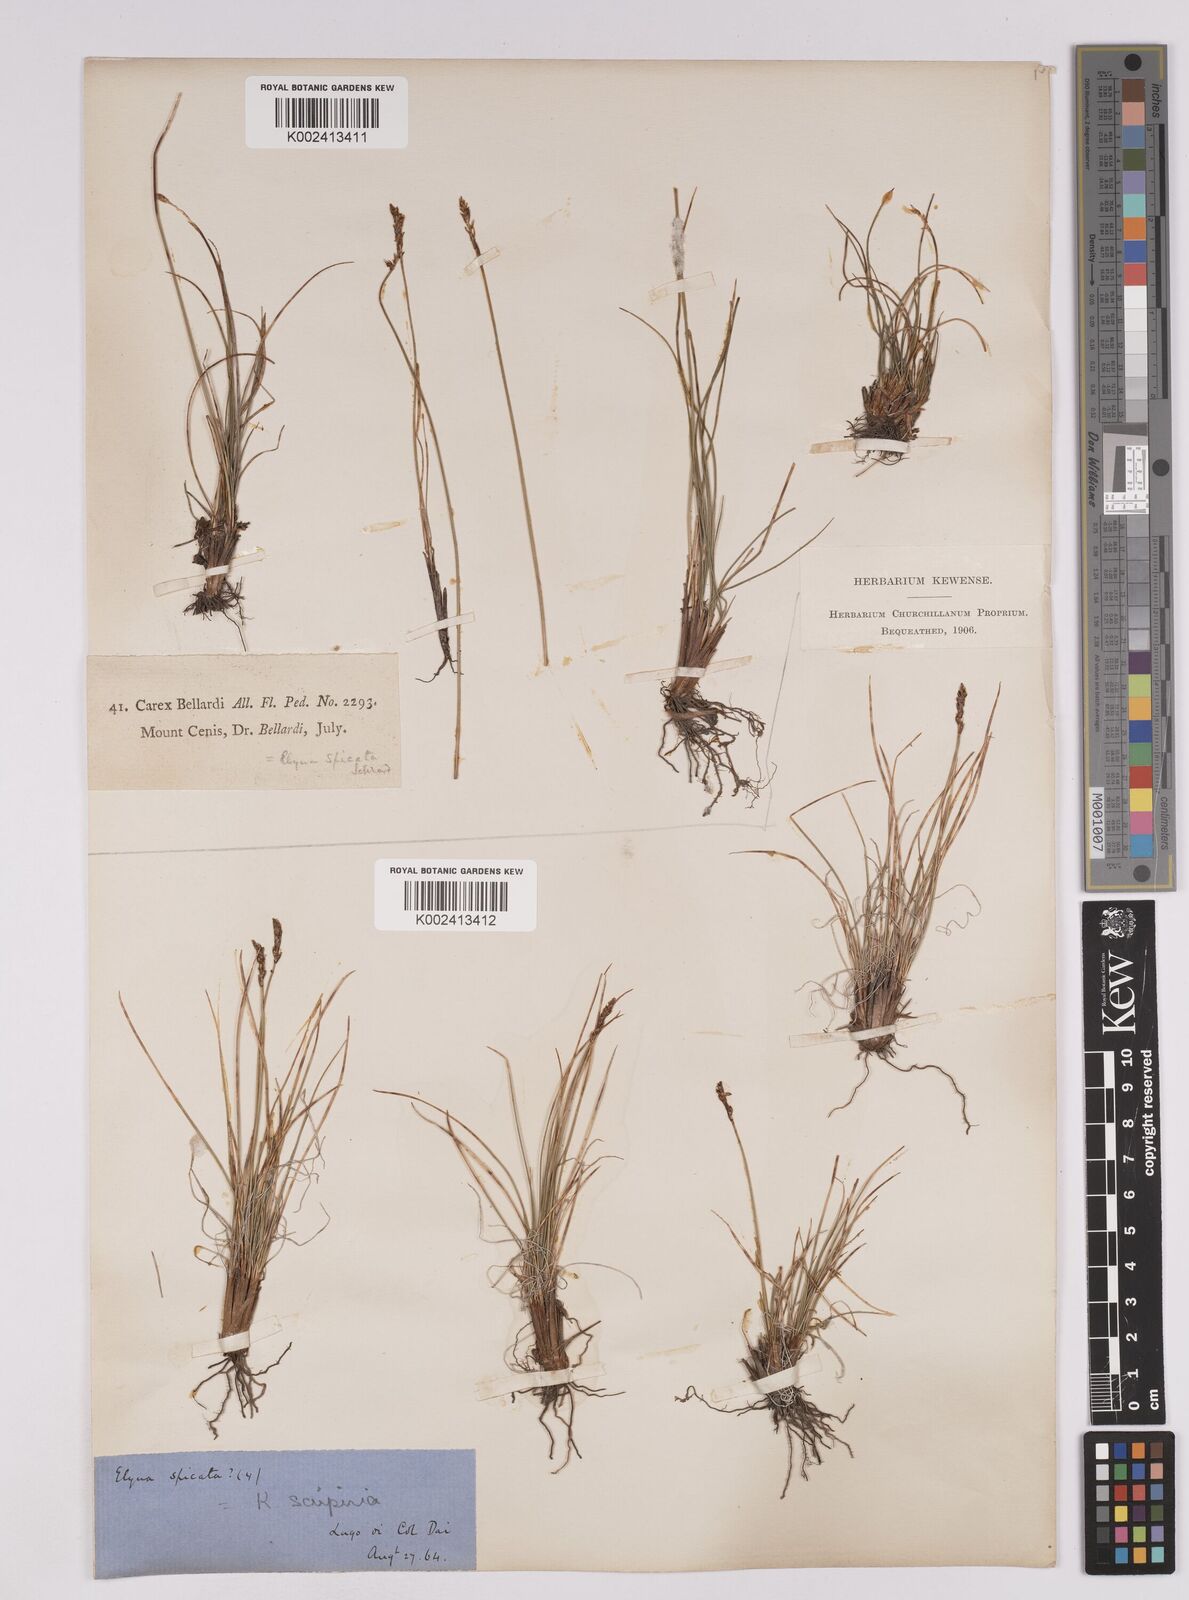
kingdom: Plantae
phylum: Tracheophyta
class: Liliopsida
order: Poales
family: Cyperaceae
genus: Carex
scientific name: Carex myosuroides
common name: Bellard's bog sedge
